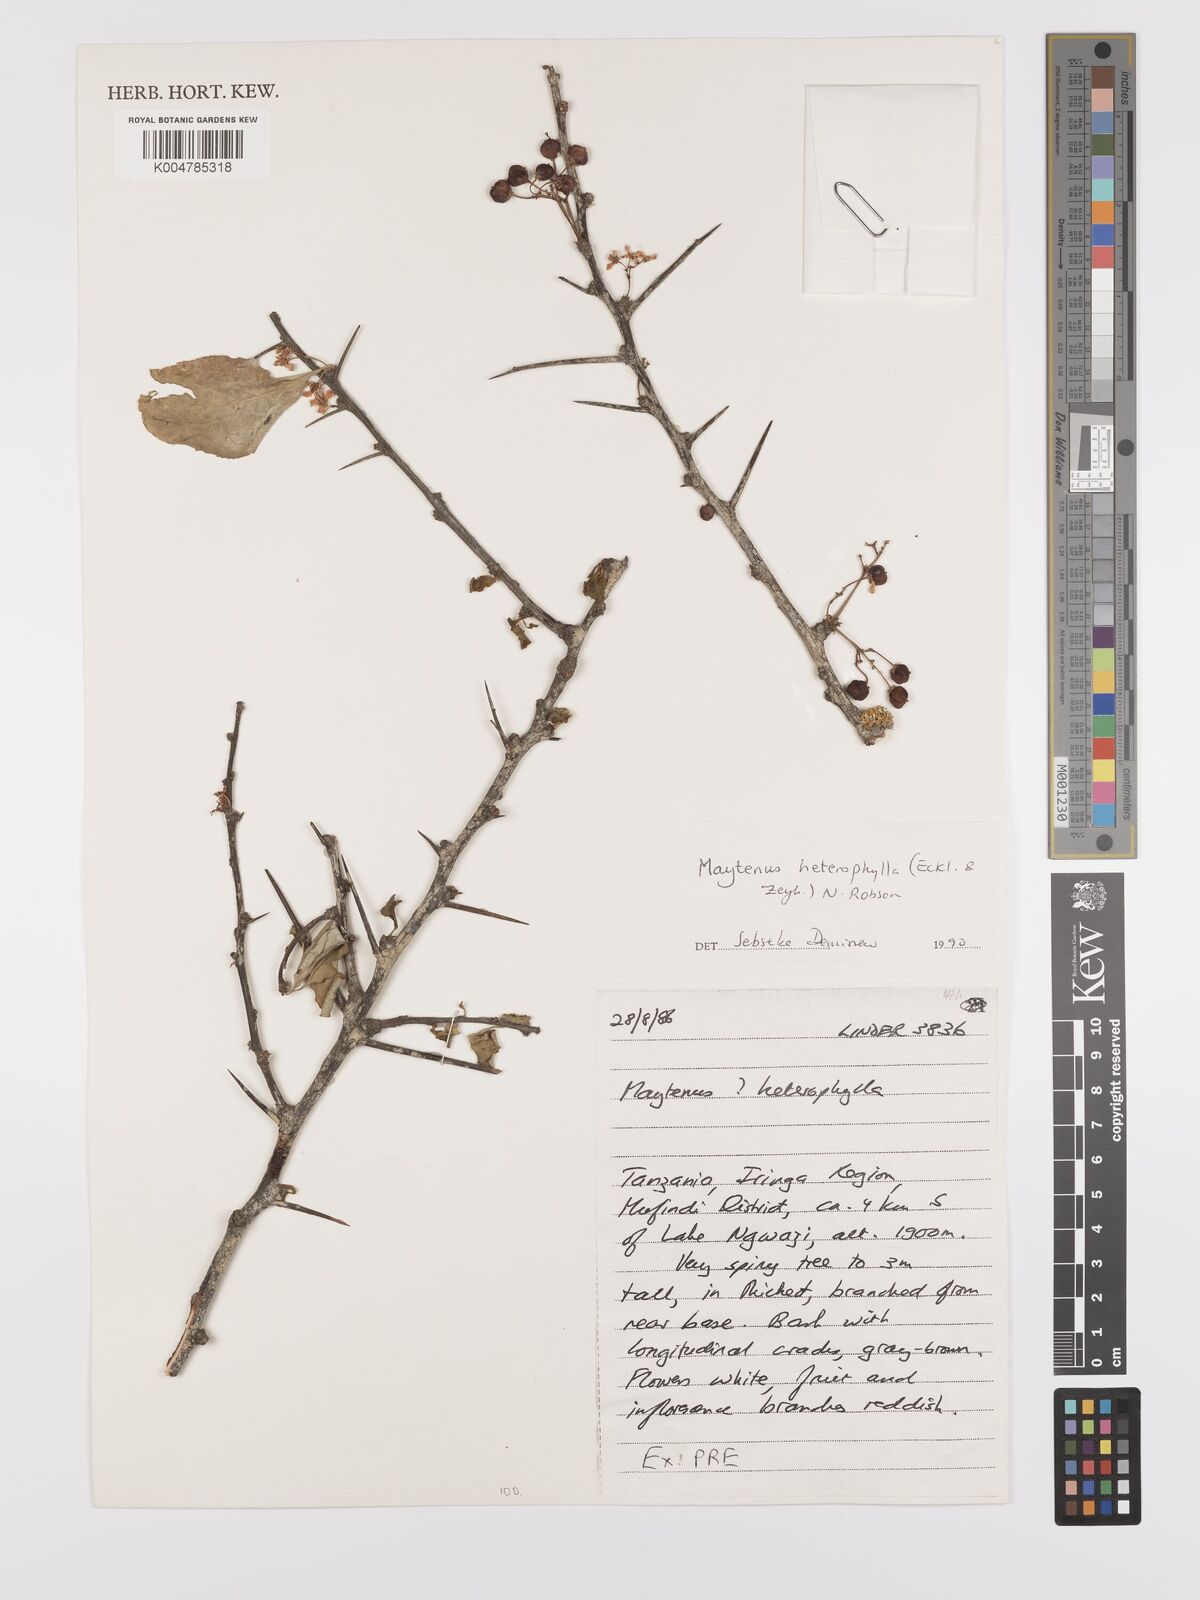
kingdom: Plantae
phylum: Tracheophyta
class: Magnoliopsida
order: Celastrales
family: Celastraceae
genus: Gymnosporia
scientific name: Gymnosporia heterophylla
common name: Angle-stem spikethorn
